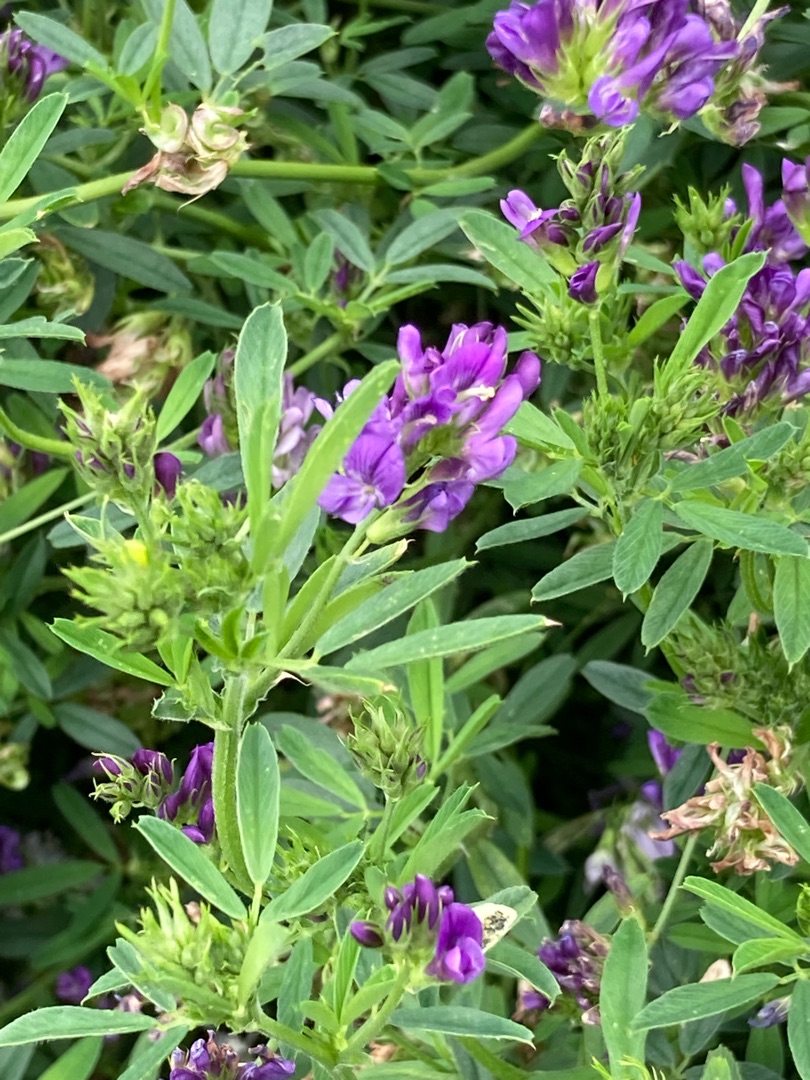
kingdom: Plantae
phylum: Tracheophyta
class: Magnoliopsida
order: Fabales
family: Fabaceae
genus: Medicago
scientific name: Medicago sativa
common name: Lucerne
